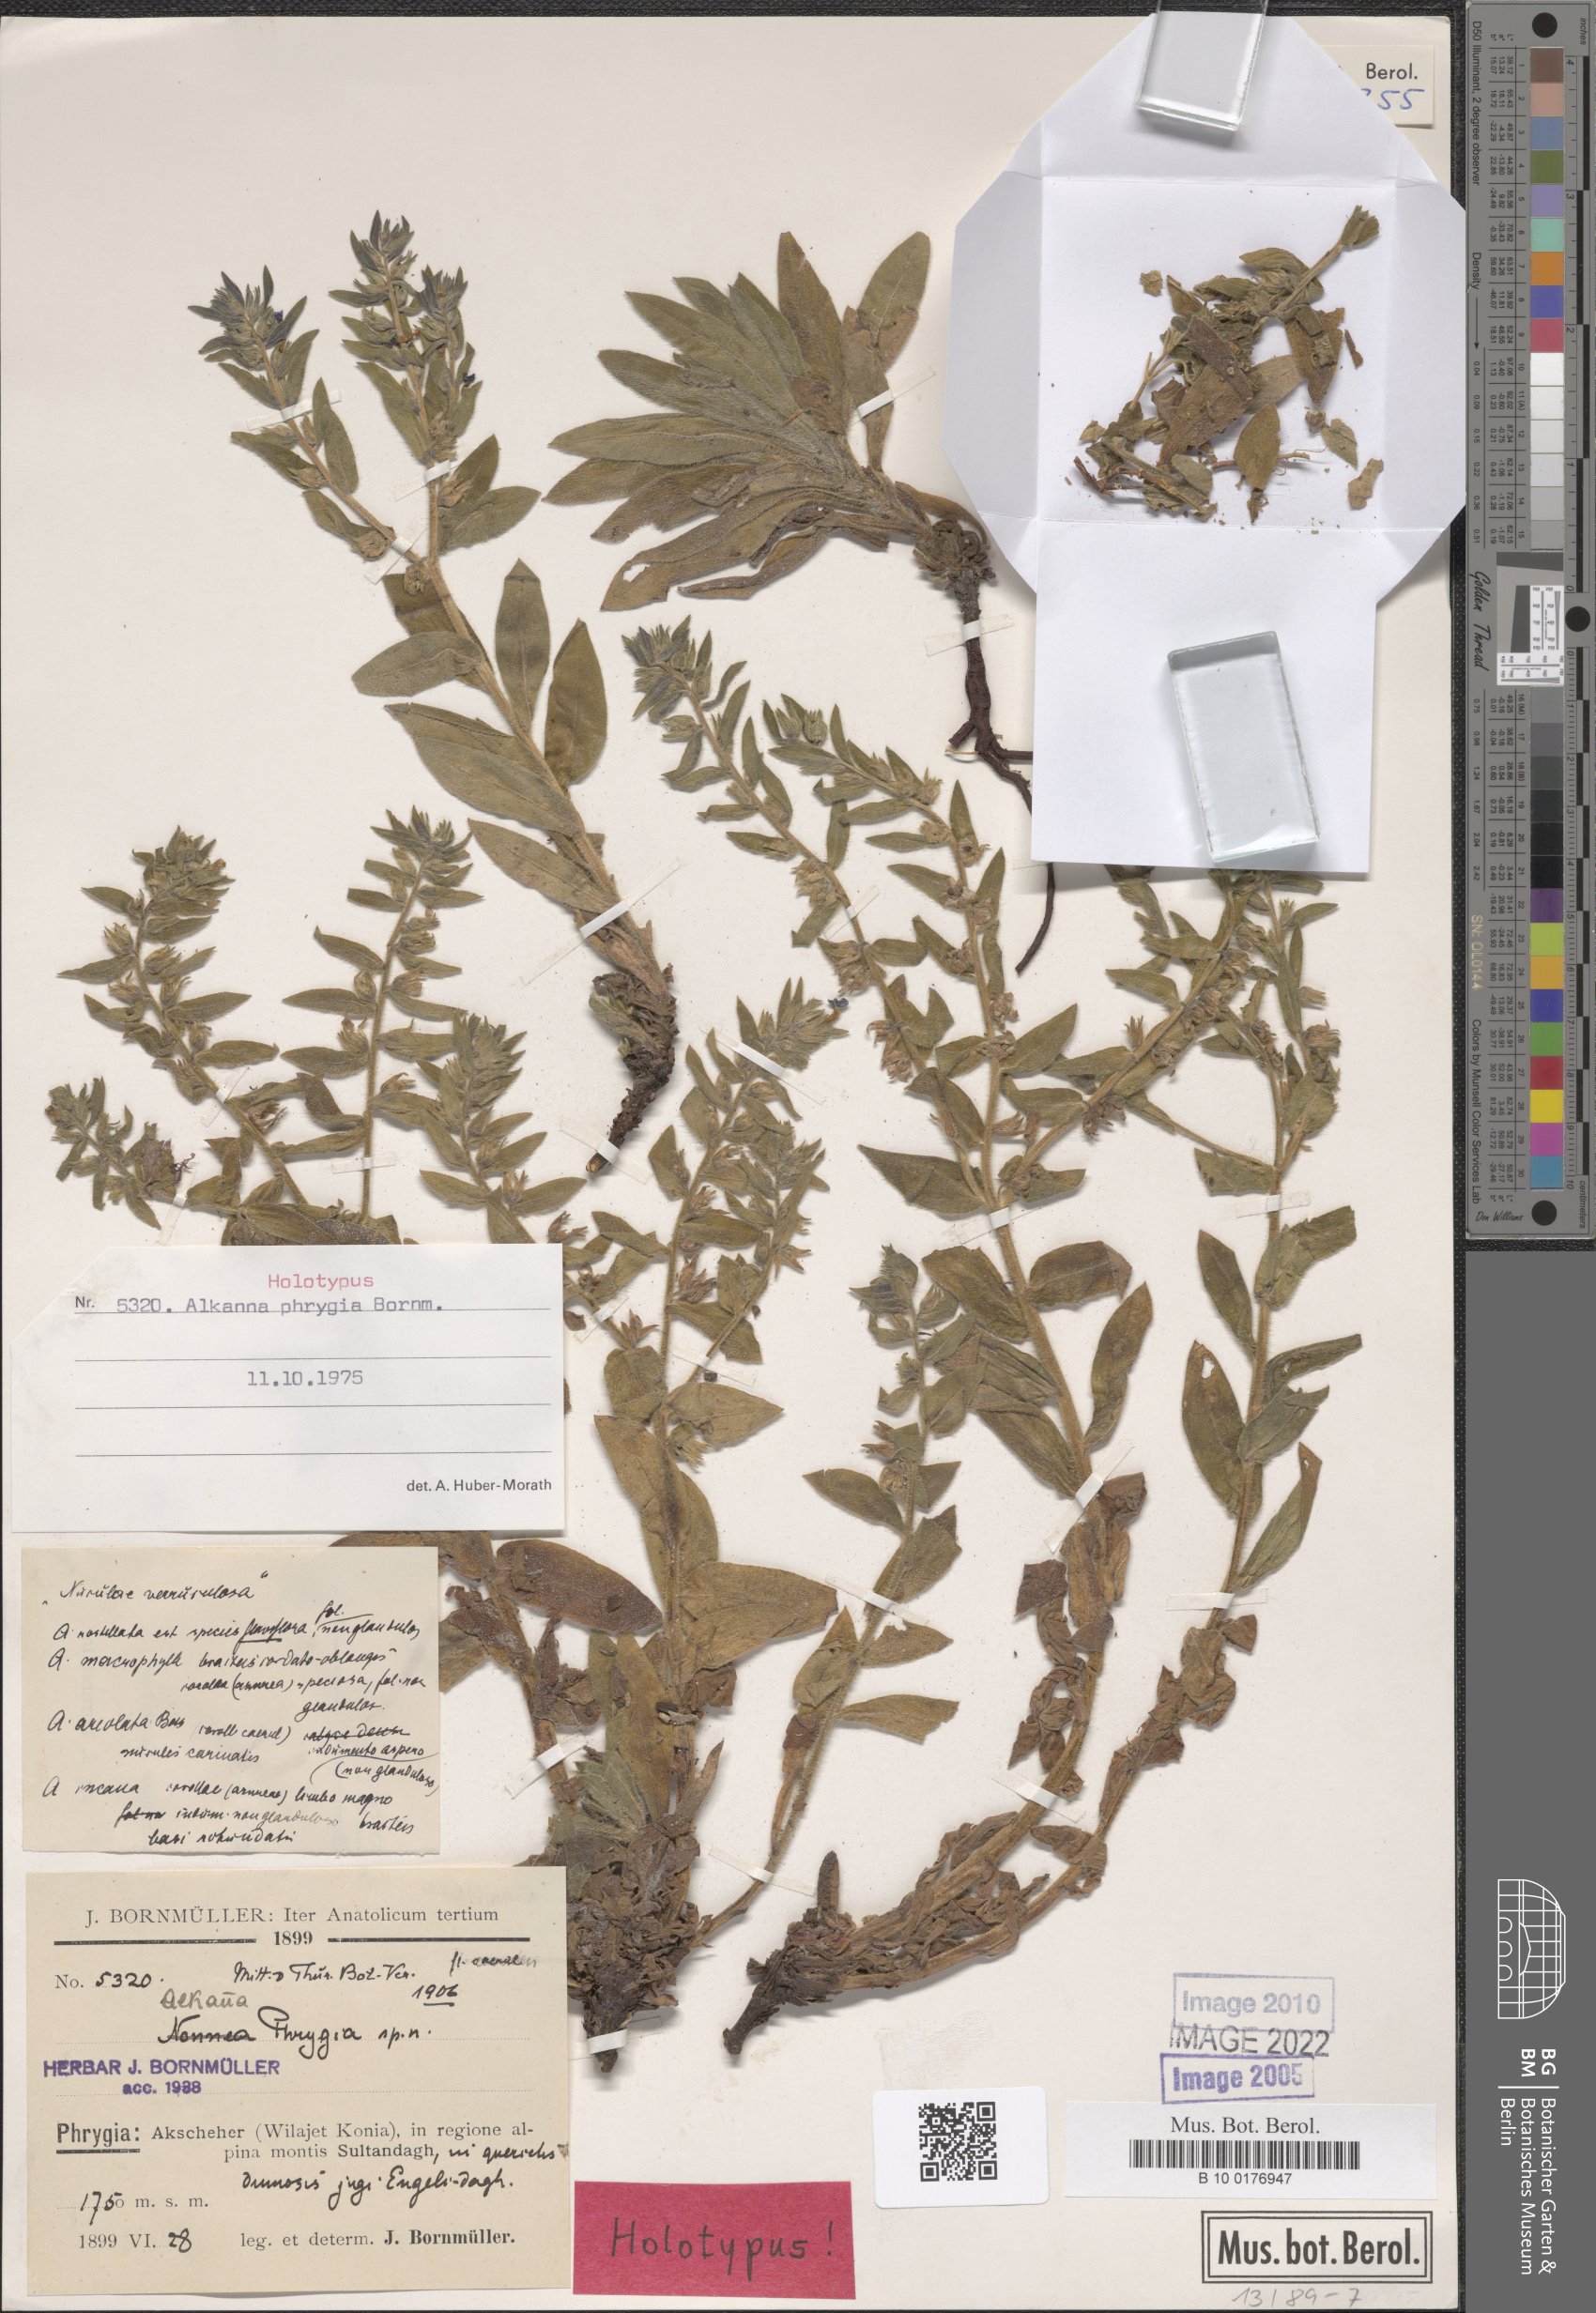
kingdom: Plantae
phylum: Tracheophyta
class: Magnoliopsida
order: Boraginales
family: Boraginaceae
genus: Alkanna
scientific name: Alkanna phrygia
